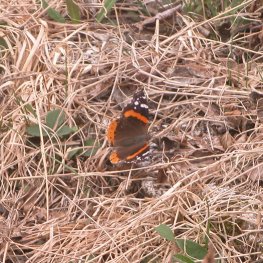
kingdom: Animalia
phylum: Arthropoda
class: Insecta
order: Lepidoptera
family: Nymphalidae
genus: Vanessa
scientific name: Vanessa atalanta
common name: Red Admiral
